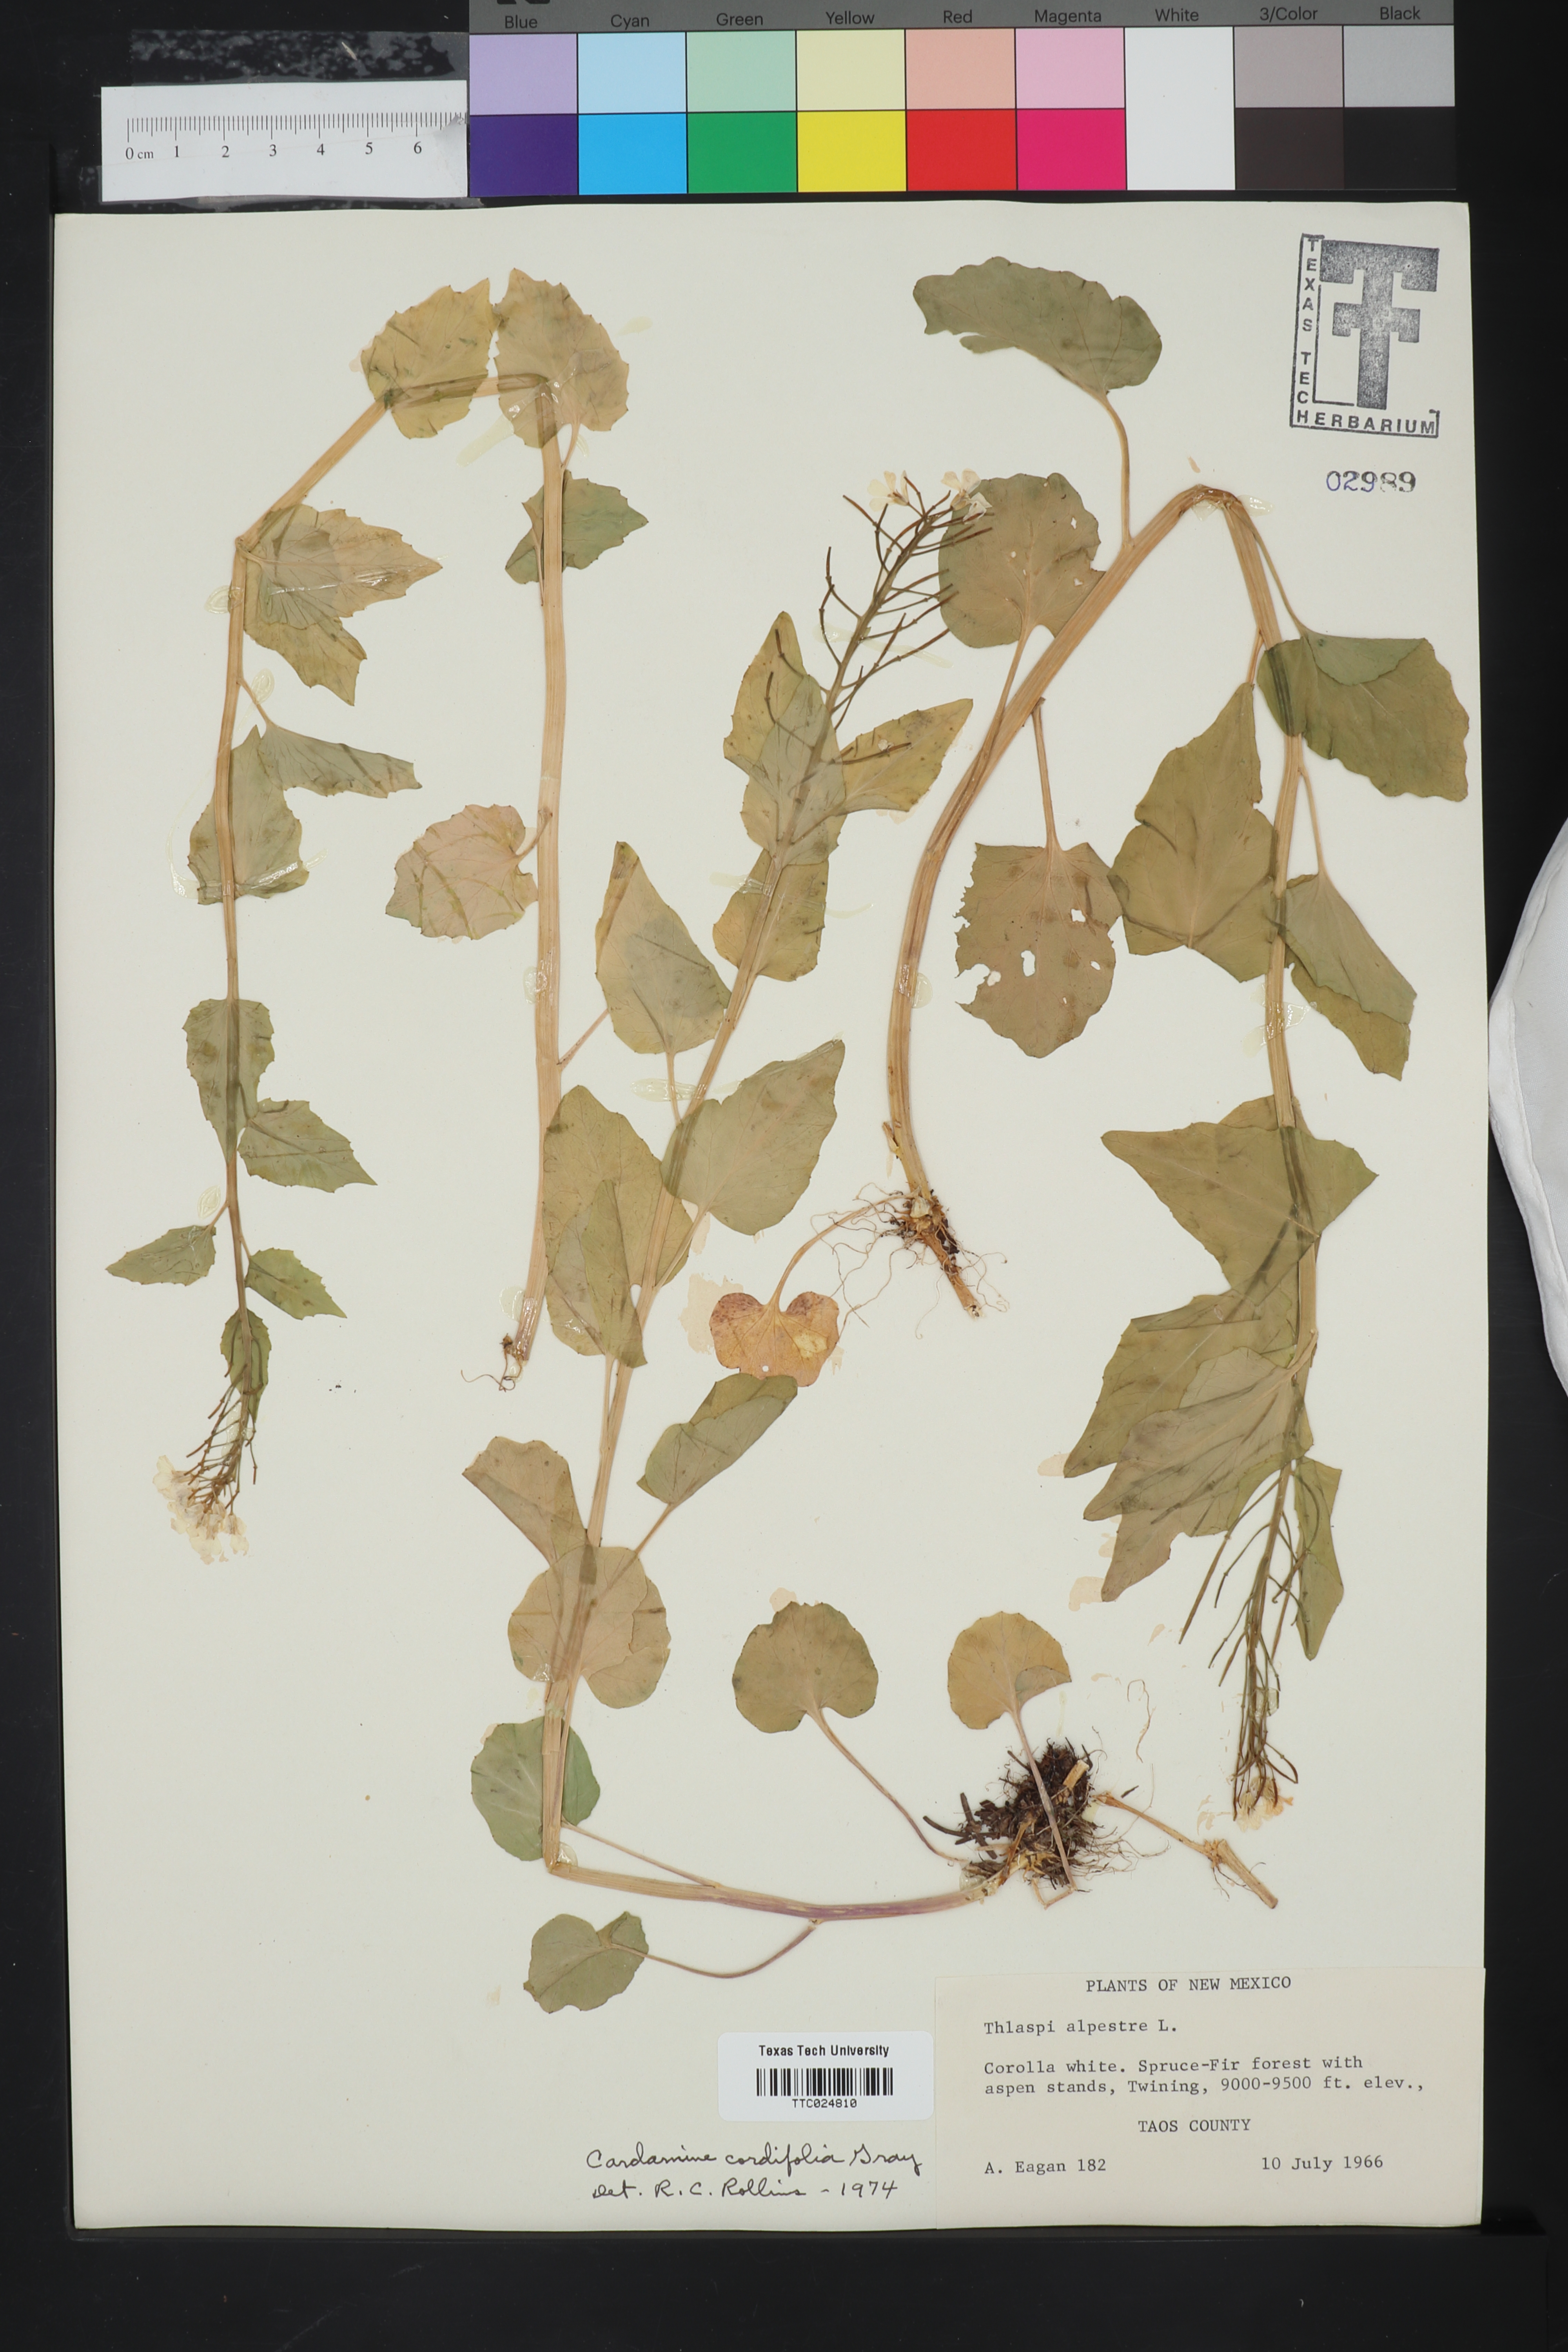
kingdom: Plantae
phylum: Tracheophyta
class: Magnoliopsida
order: Brassicales
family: Brassicaceae
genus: Noccaea
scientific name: Noccaea alpestris
